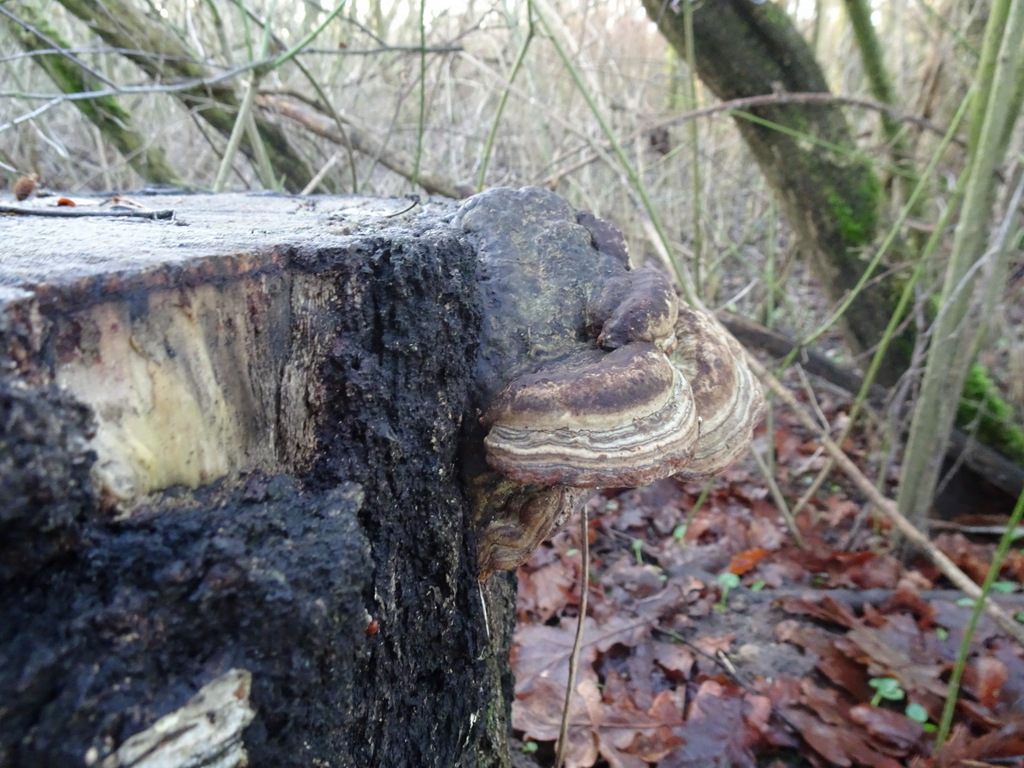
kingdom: Fungi
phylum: Basidiomycota
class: Agaricomycetes
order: Polyporales
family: Polyporaceae
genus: Fomes
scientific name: Fomes fomentarius
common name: tøndersvamp
